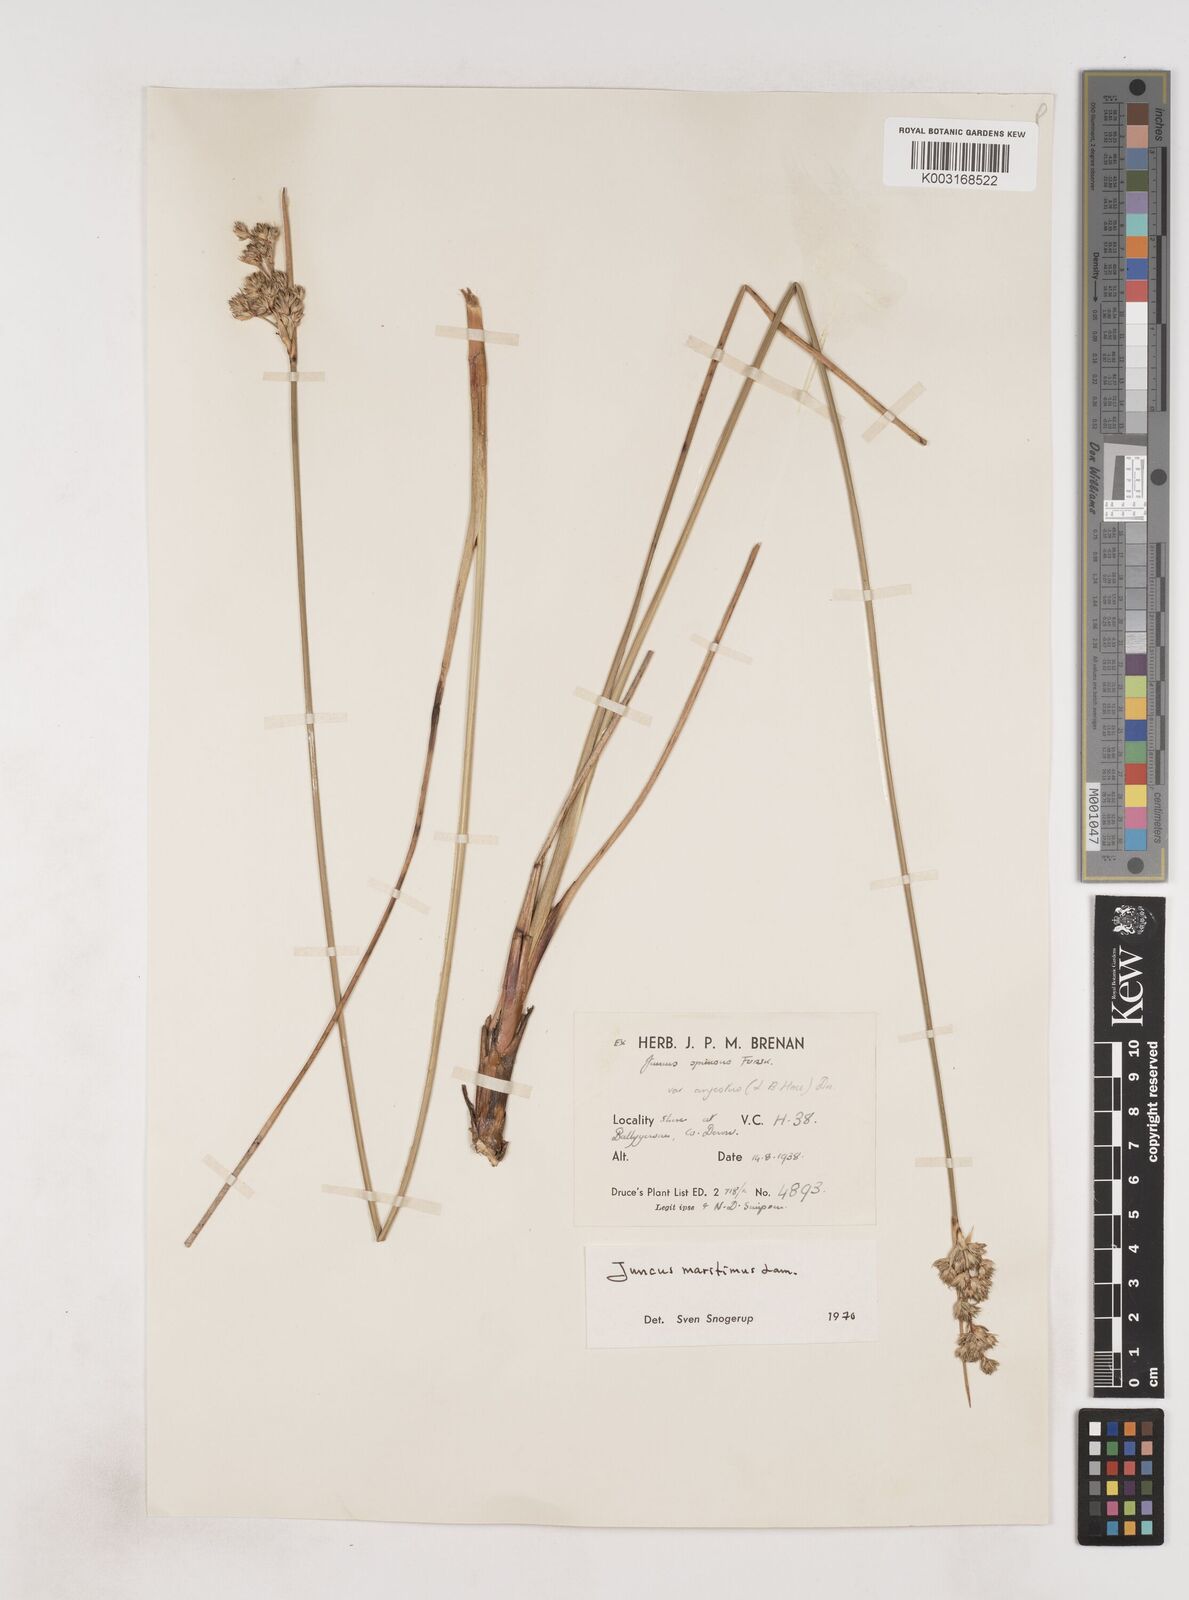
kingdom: Plantae
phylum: Tracheophyta
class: Liliopsida
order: Poales
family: Juncaceae
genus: Juncus
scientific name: Juncus maritimus
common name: Sea rush
